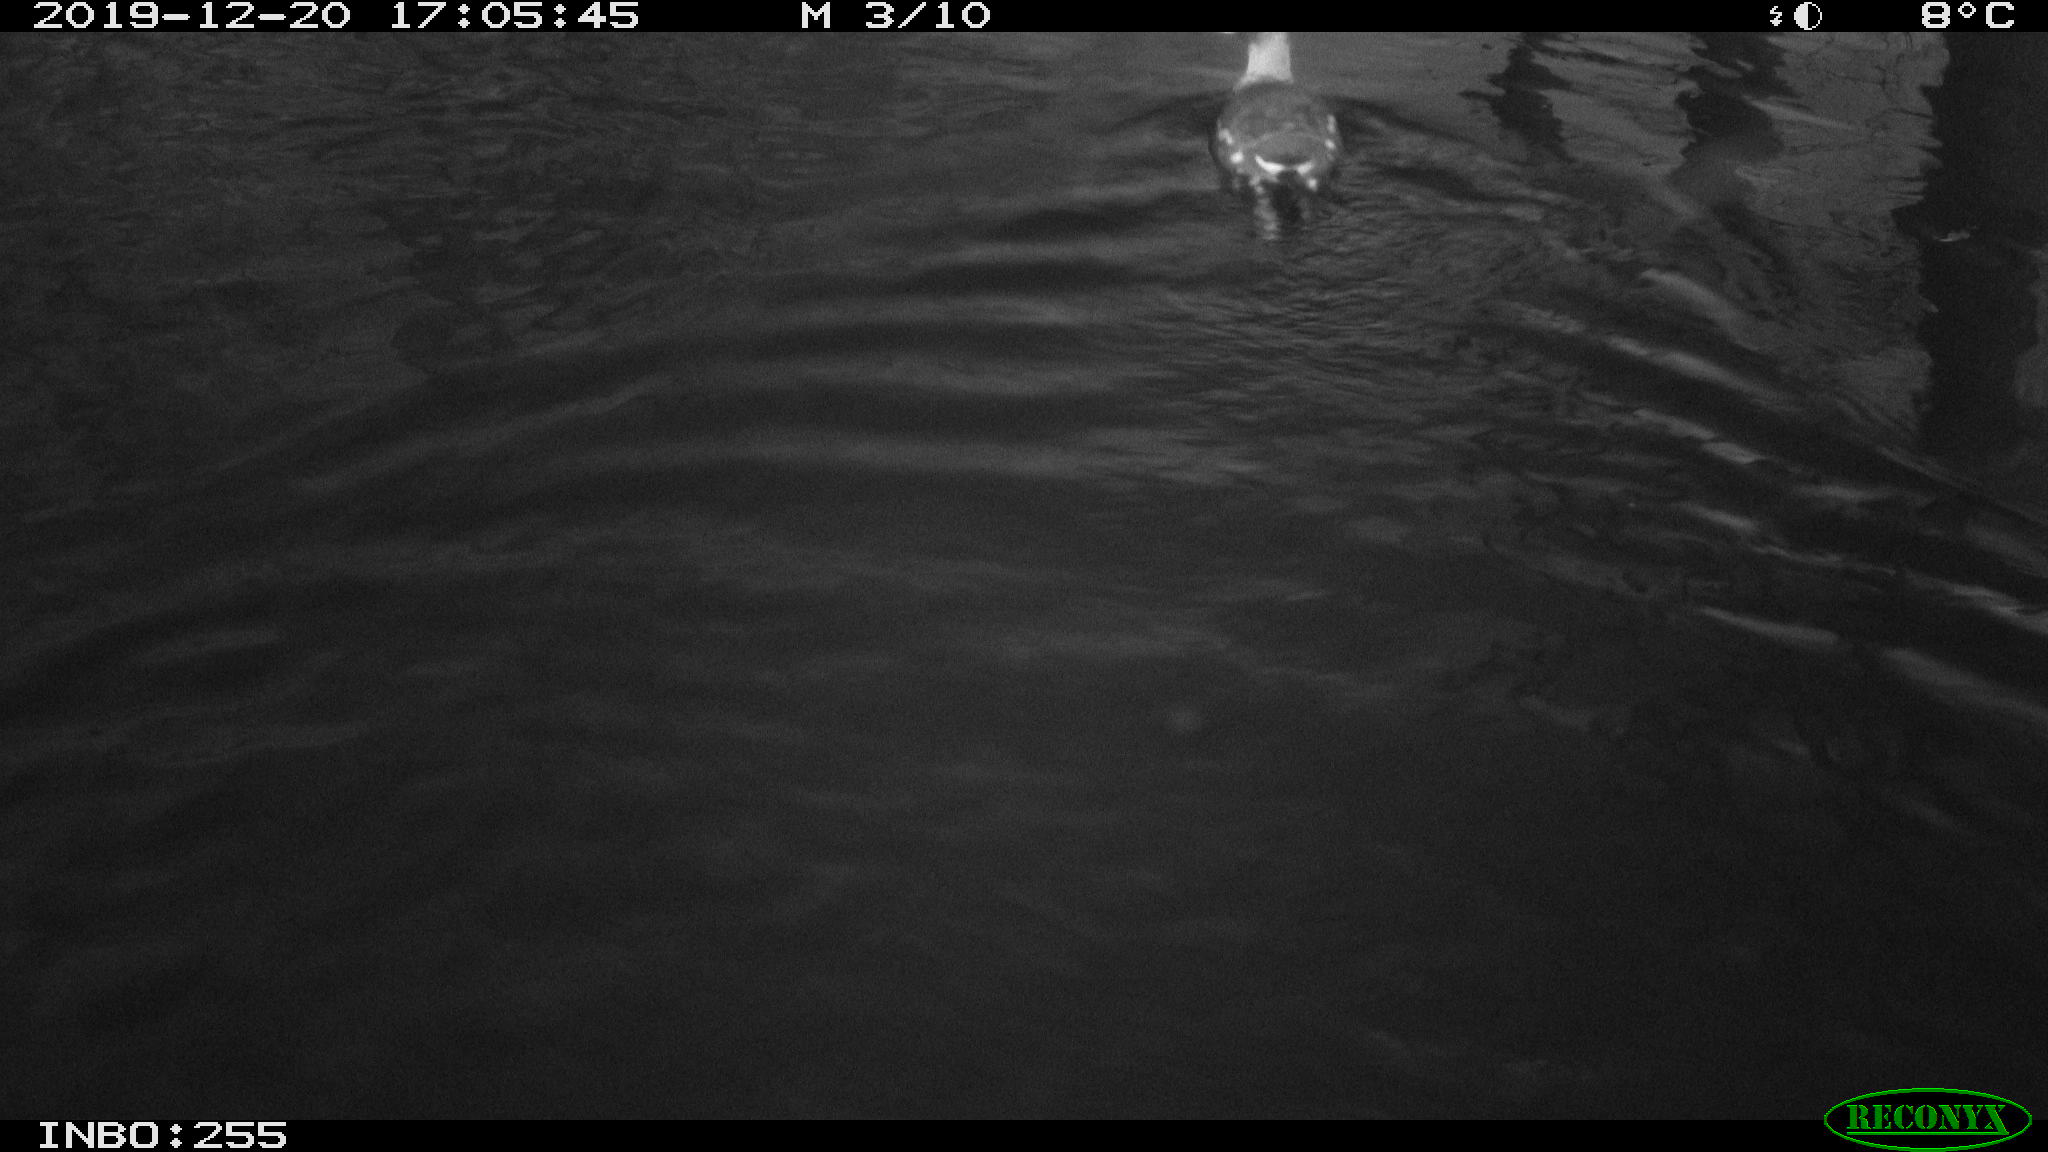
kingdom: Animalia
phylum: Chordata
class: Aves
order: Gruiformes
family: Rallidae
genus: Gallinula
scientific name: Gallinula chloropus
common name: Common moorhen
